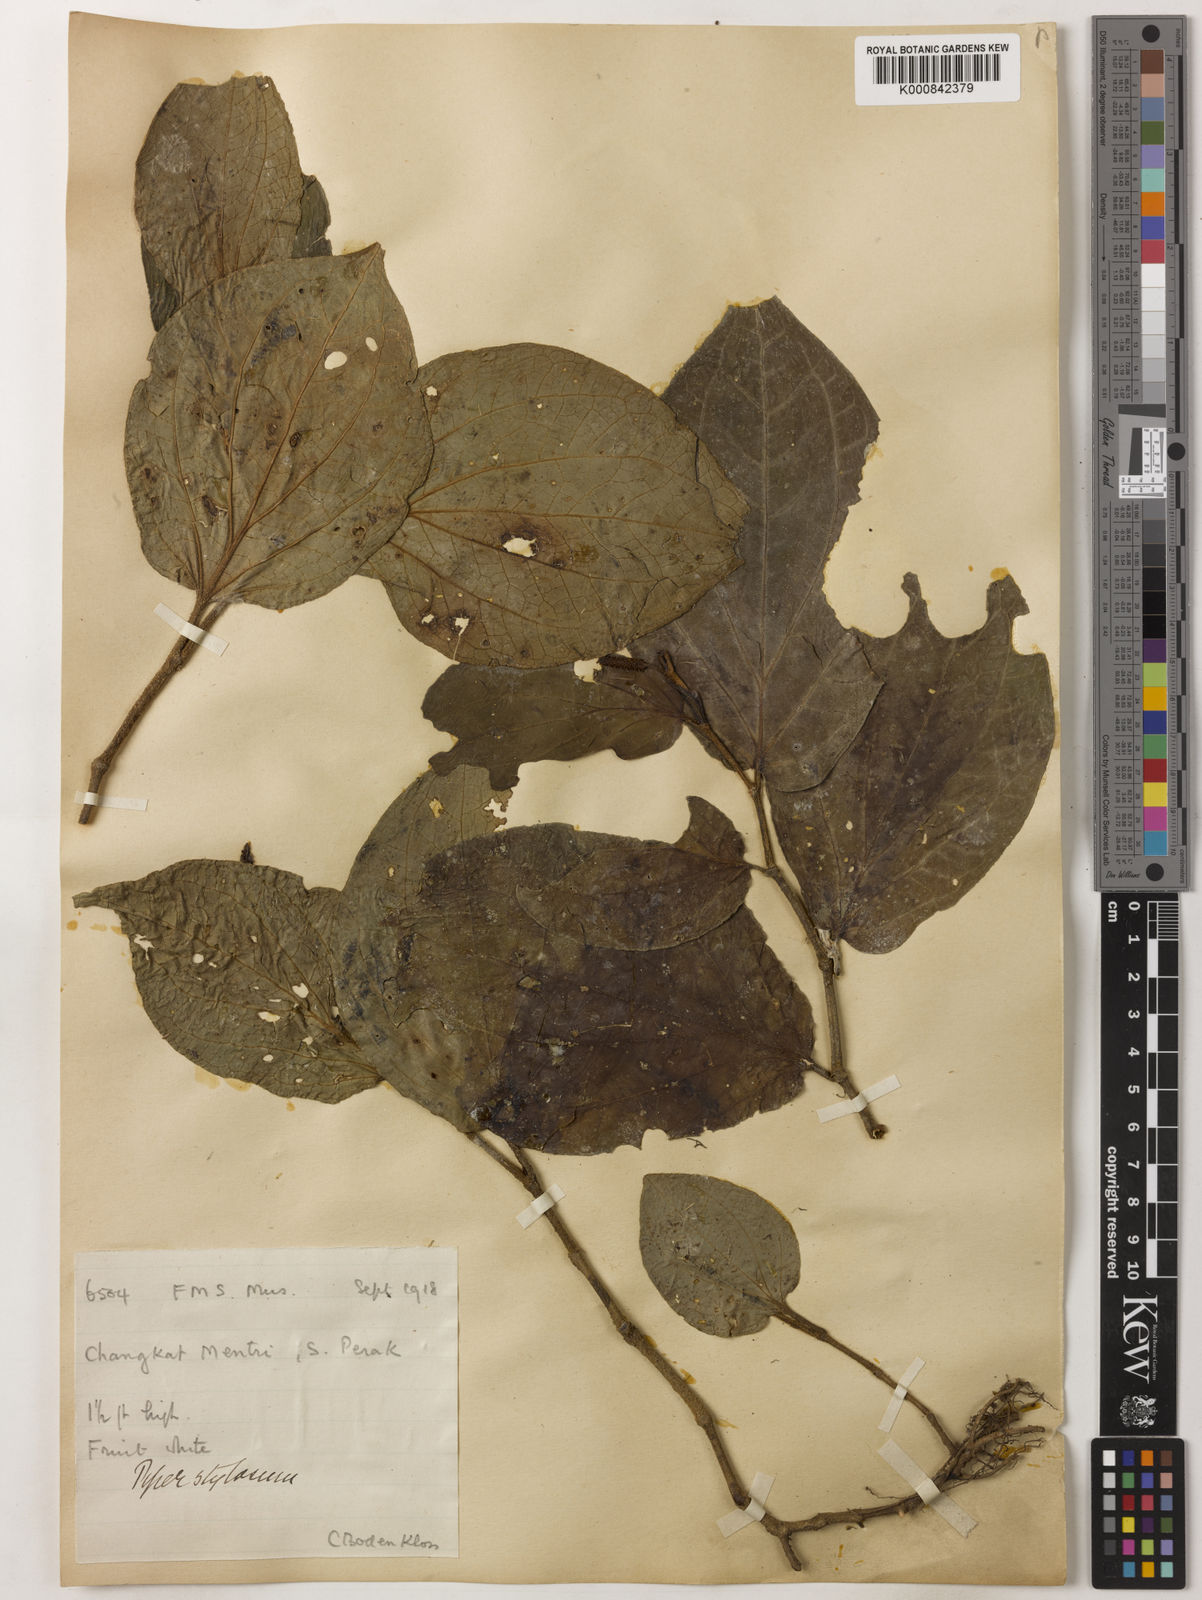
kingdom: Plantae
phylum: Tracheophyta
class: Magnoliopsida
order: Piperales
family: Piperaceae
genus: Piper
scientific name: Piper rostratum
